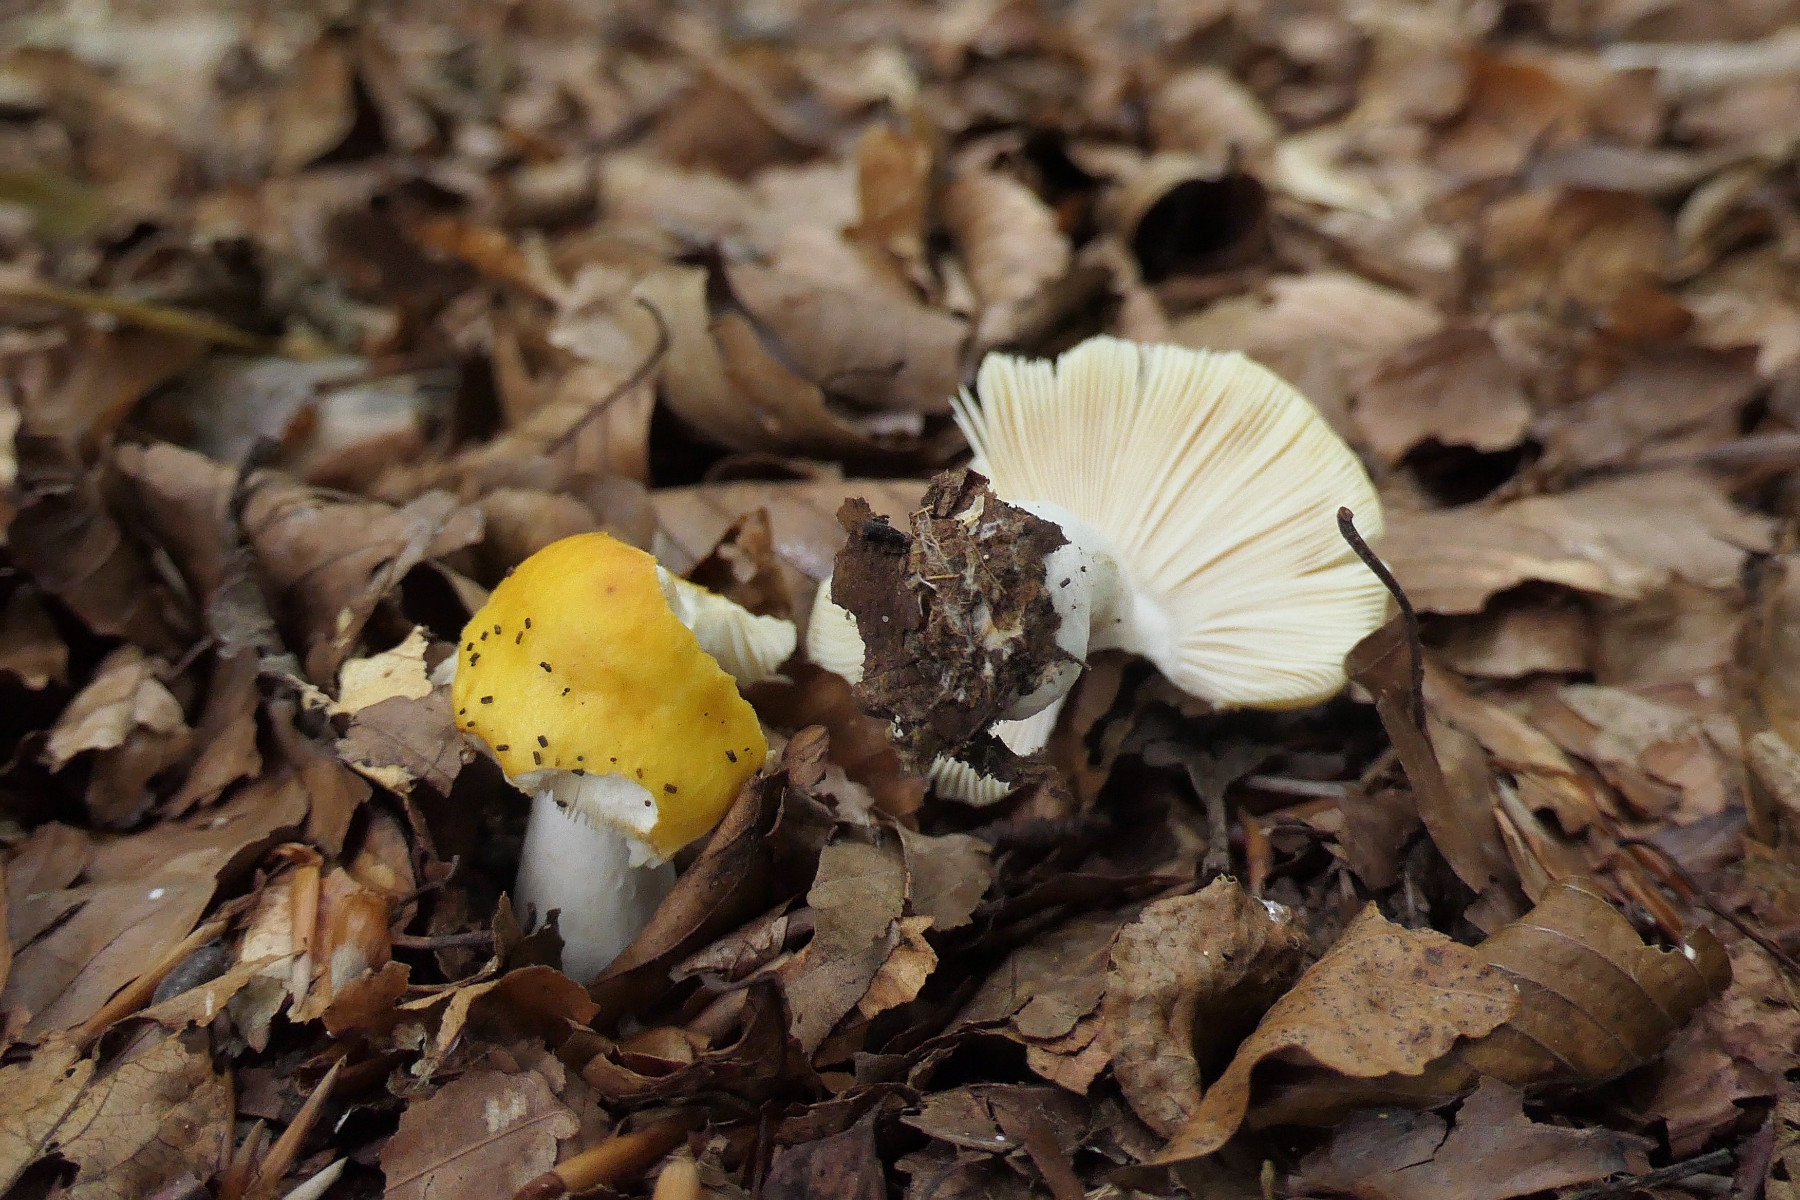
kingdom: Fungi
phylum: Basidiomycota
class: Agaricomycetes
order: Russulales
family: Russulaceae
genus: Russula
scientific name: Russula solaris
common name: sol-skørhat
